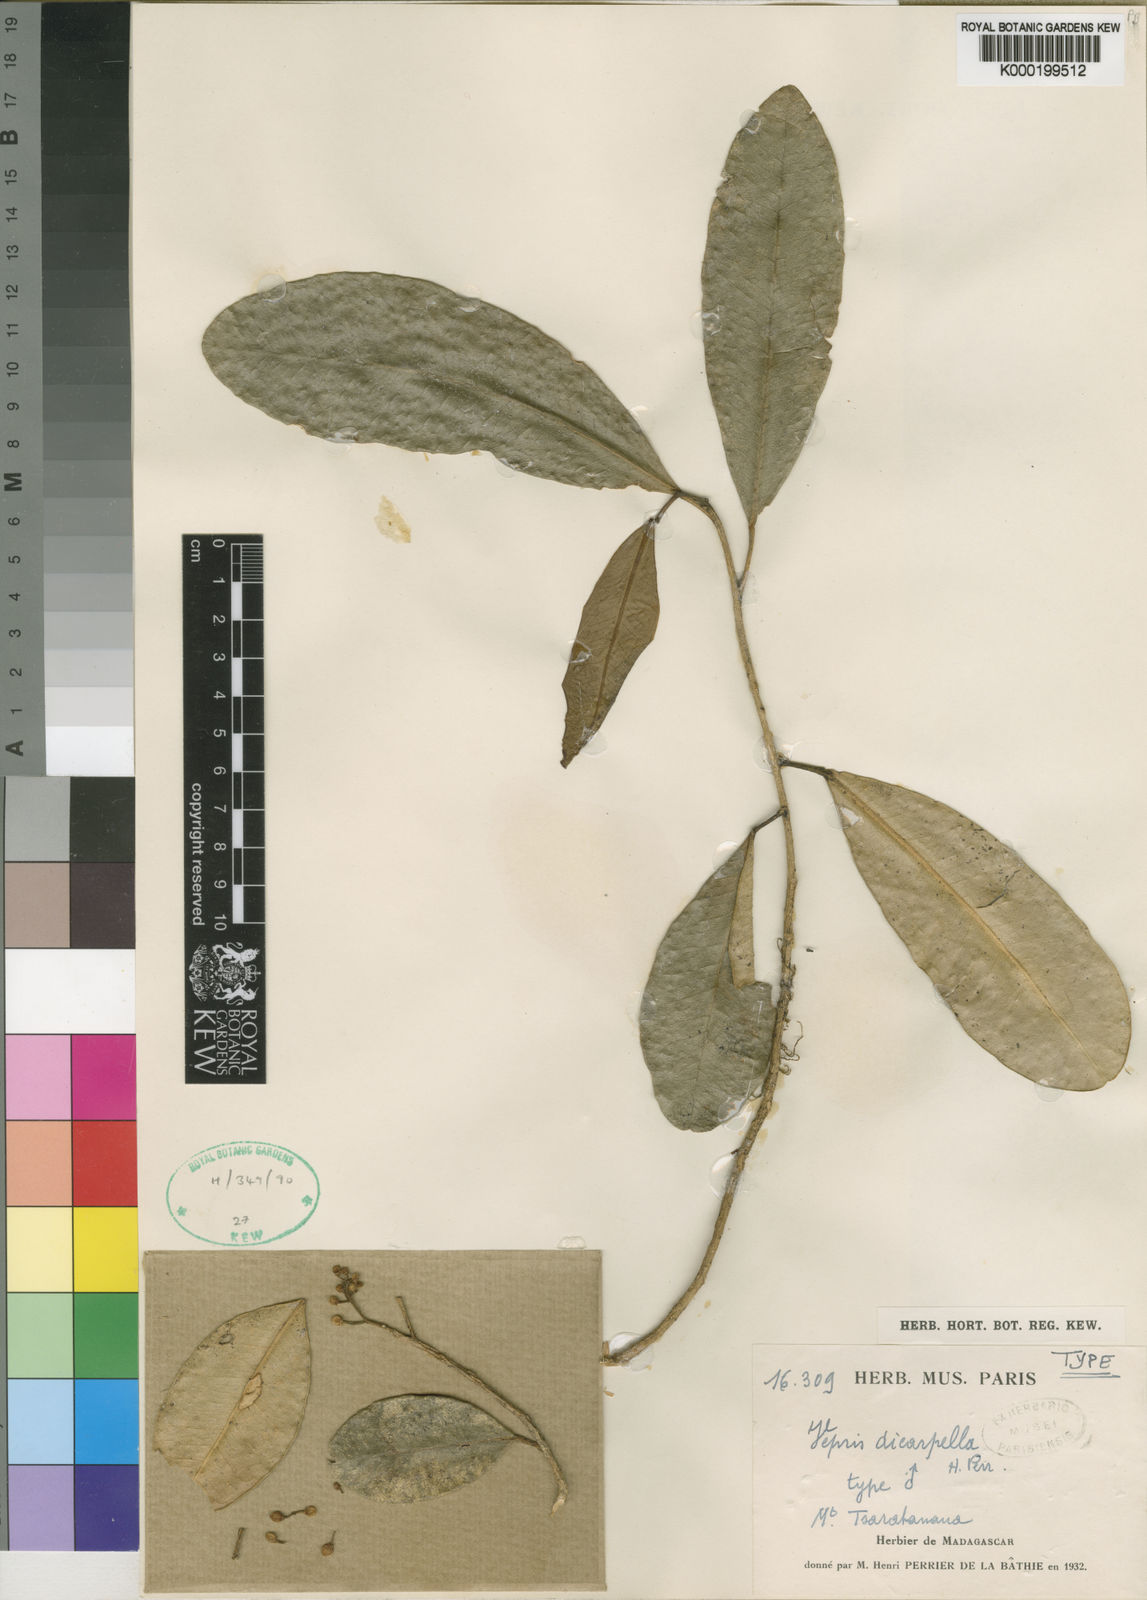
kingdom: Plantae
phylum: Tracheophyta
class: Magnoliopsida
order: Sapindales
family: Rutaceae
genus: Vepris
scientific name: Vepris dicarpella
